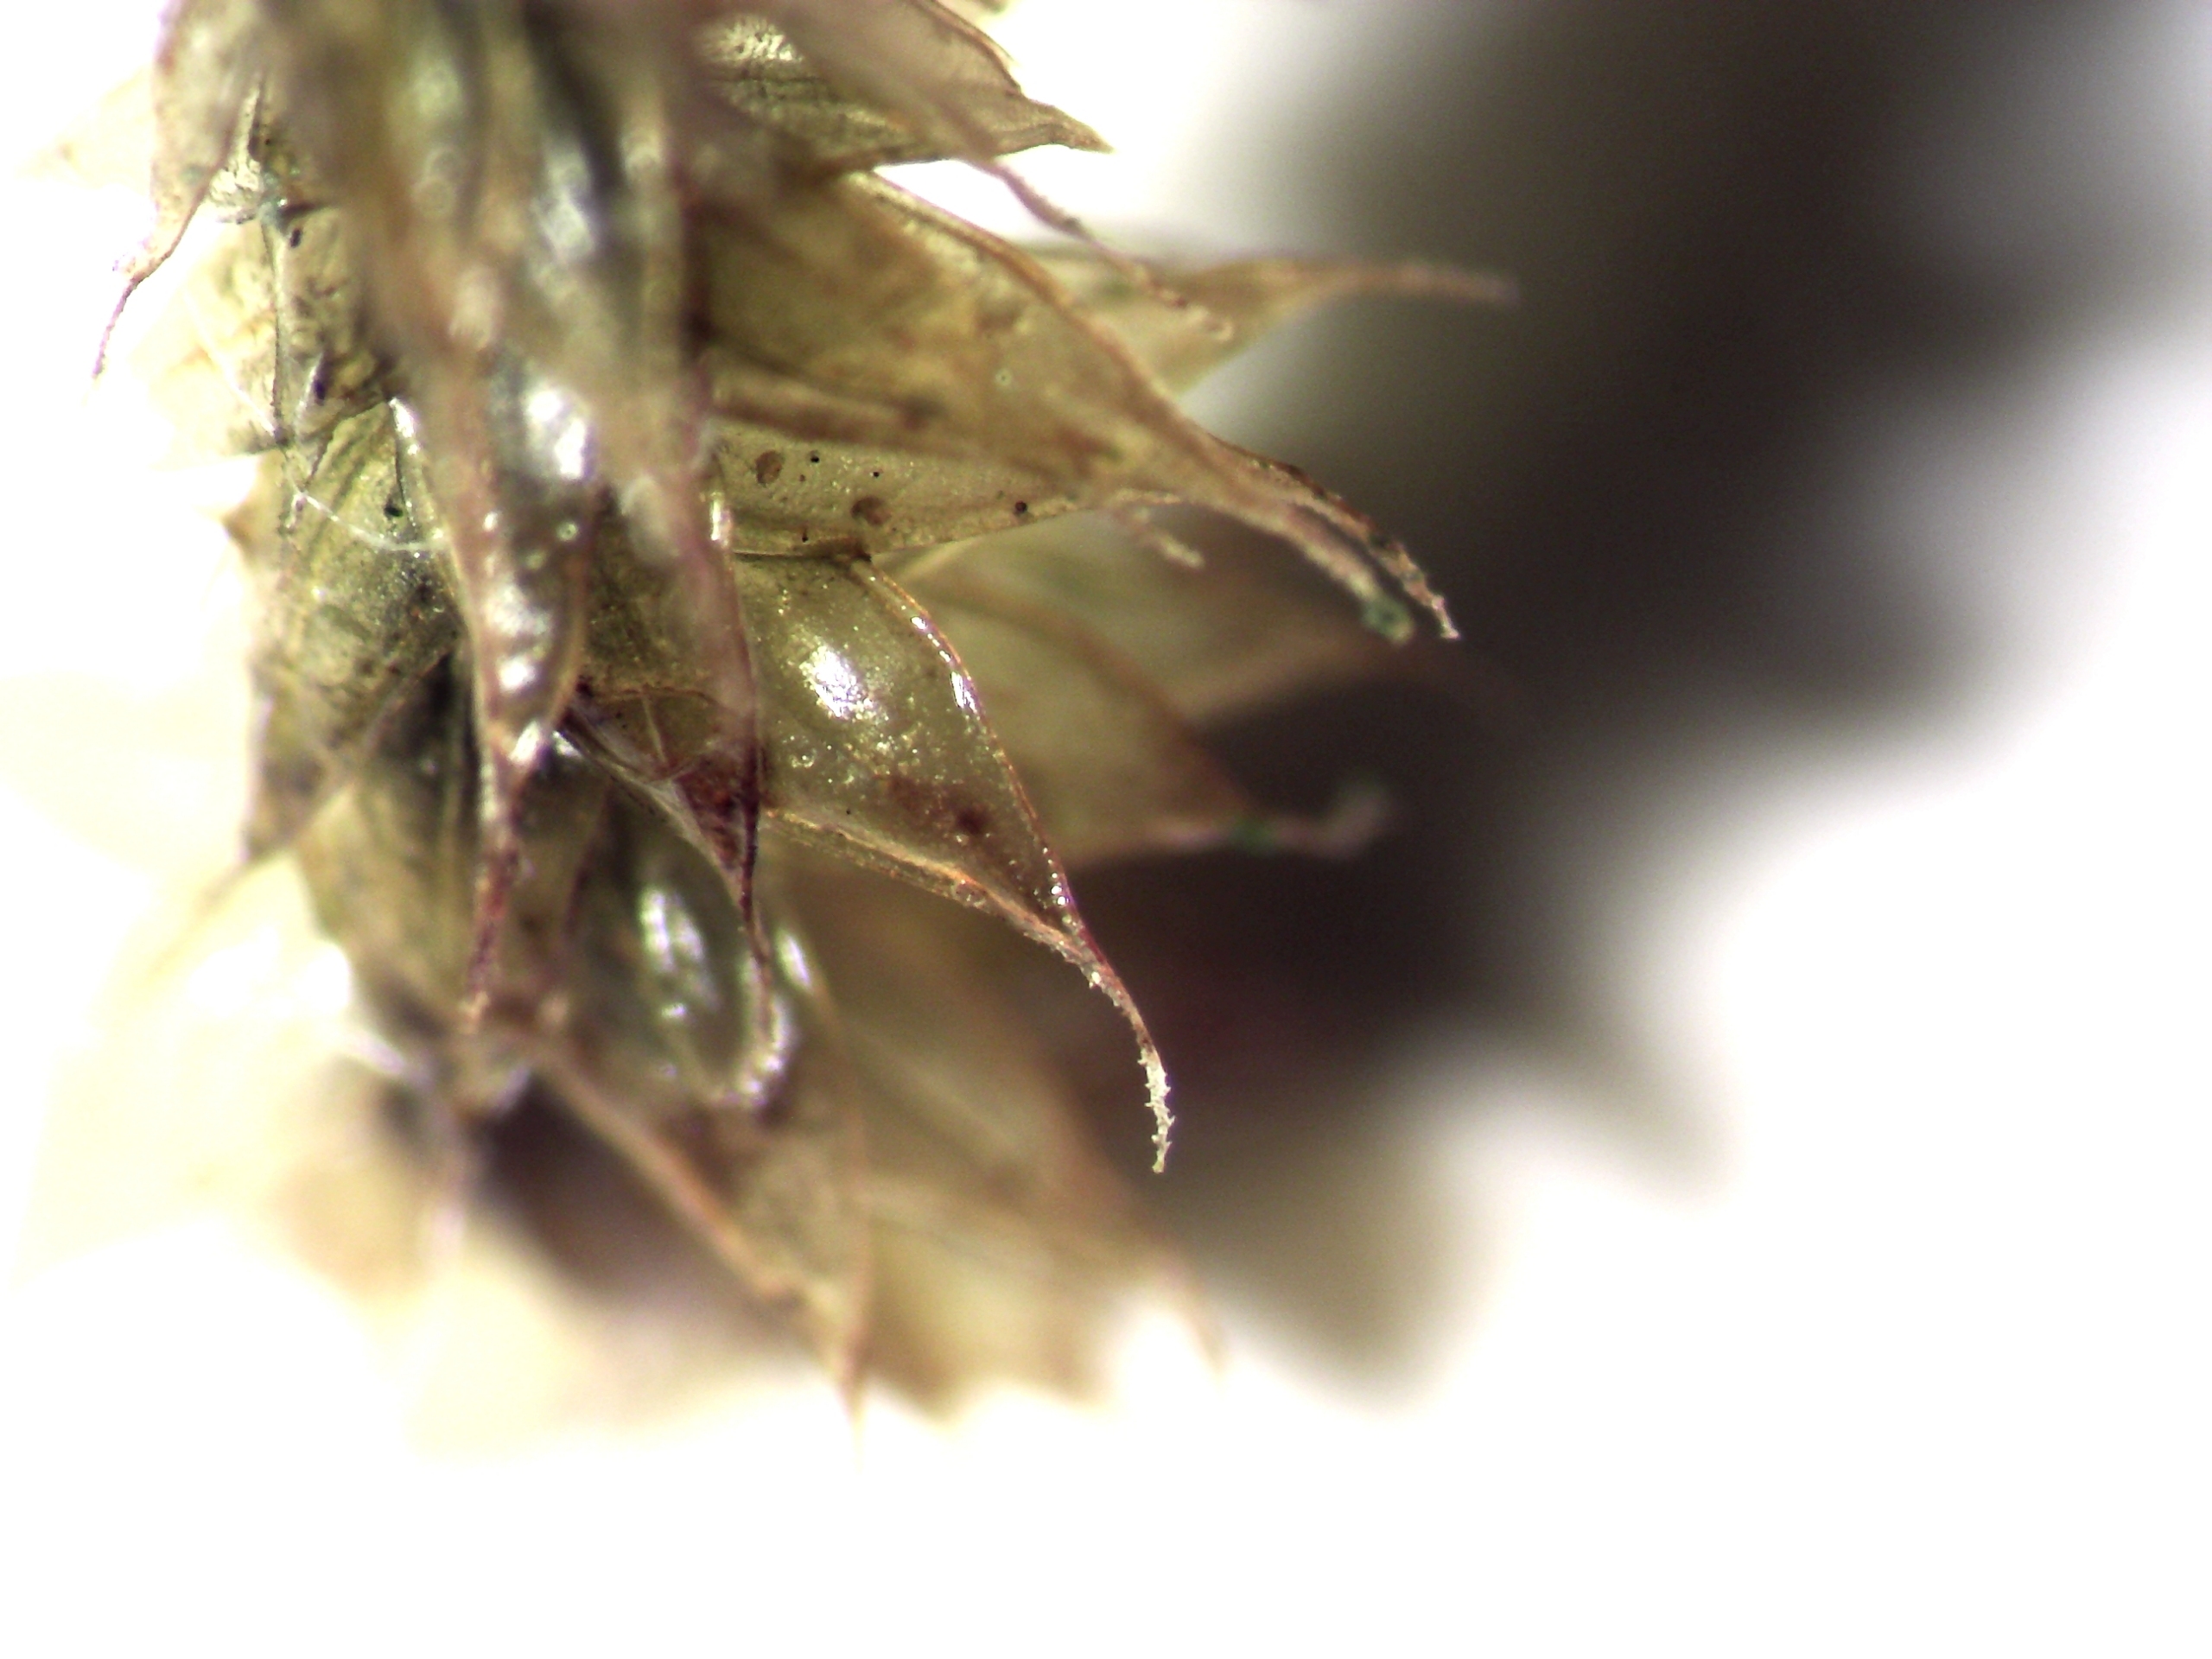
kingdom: Plantae
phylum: Bryophyta
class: Bryopsida
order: Hypnales
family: Antitrichiaceae
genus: Antitrichia
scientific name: Antitrichia curtipendula
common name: Åben krogtand
